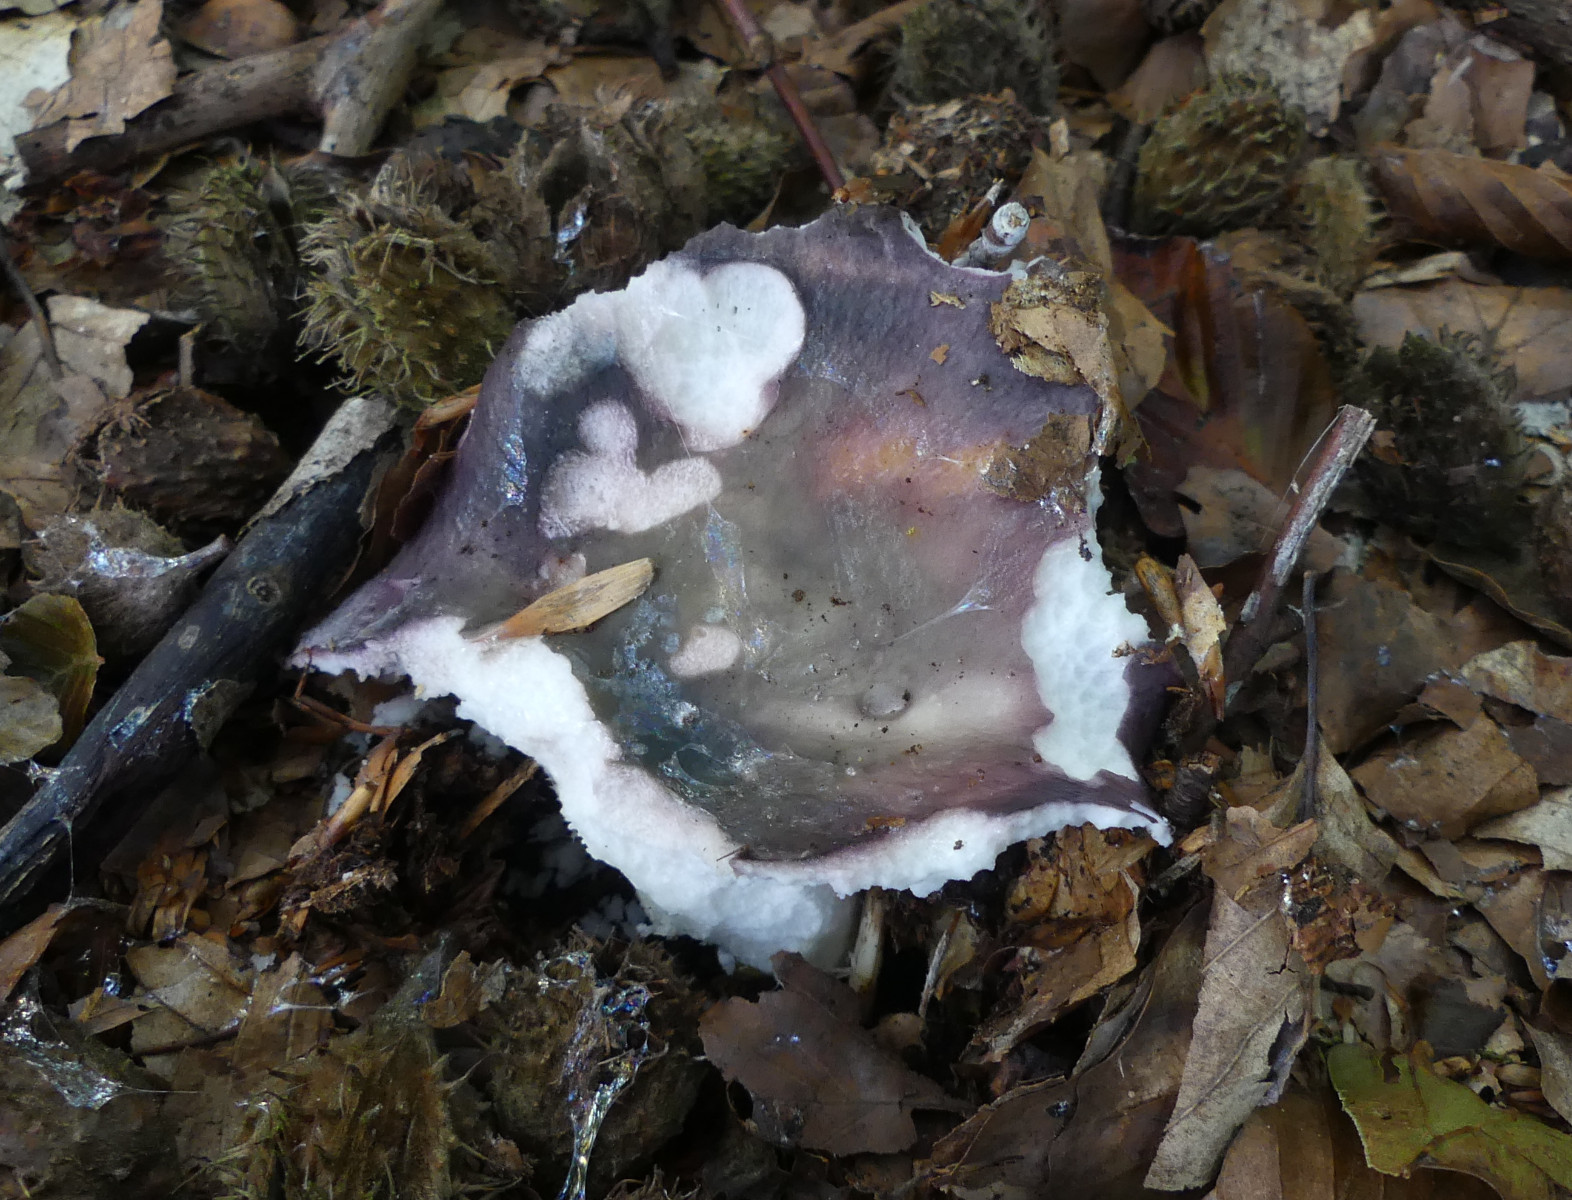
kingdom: Fungi
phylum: Basidiomycota
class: Agaricomycetes
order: Russulales
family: Russulaceae
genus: Russula
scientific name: Russula cyanoxantha
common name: broget skørhat
